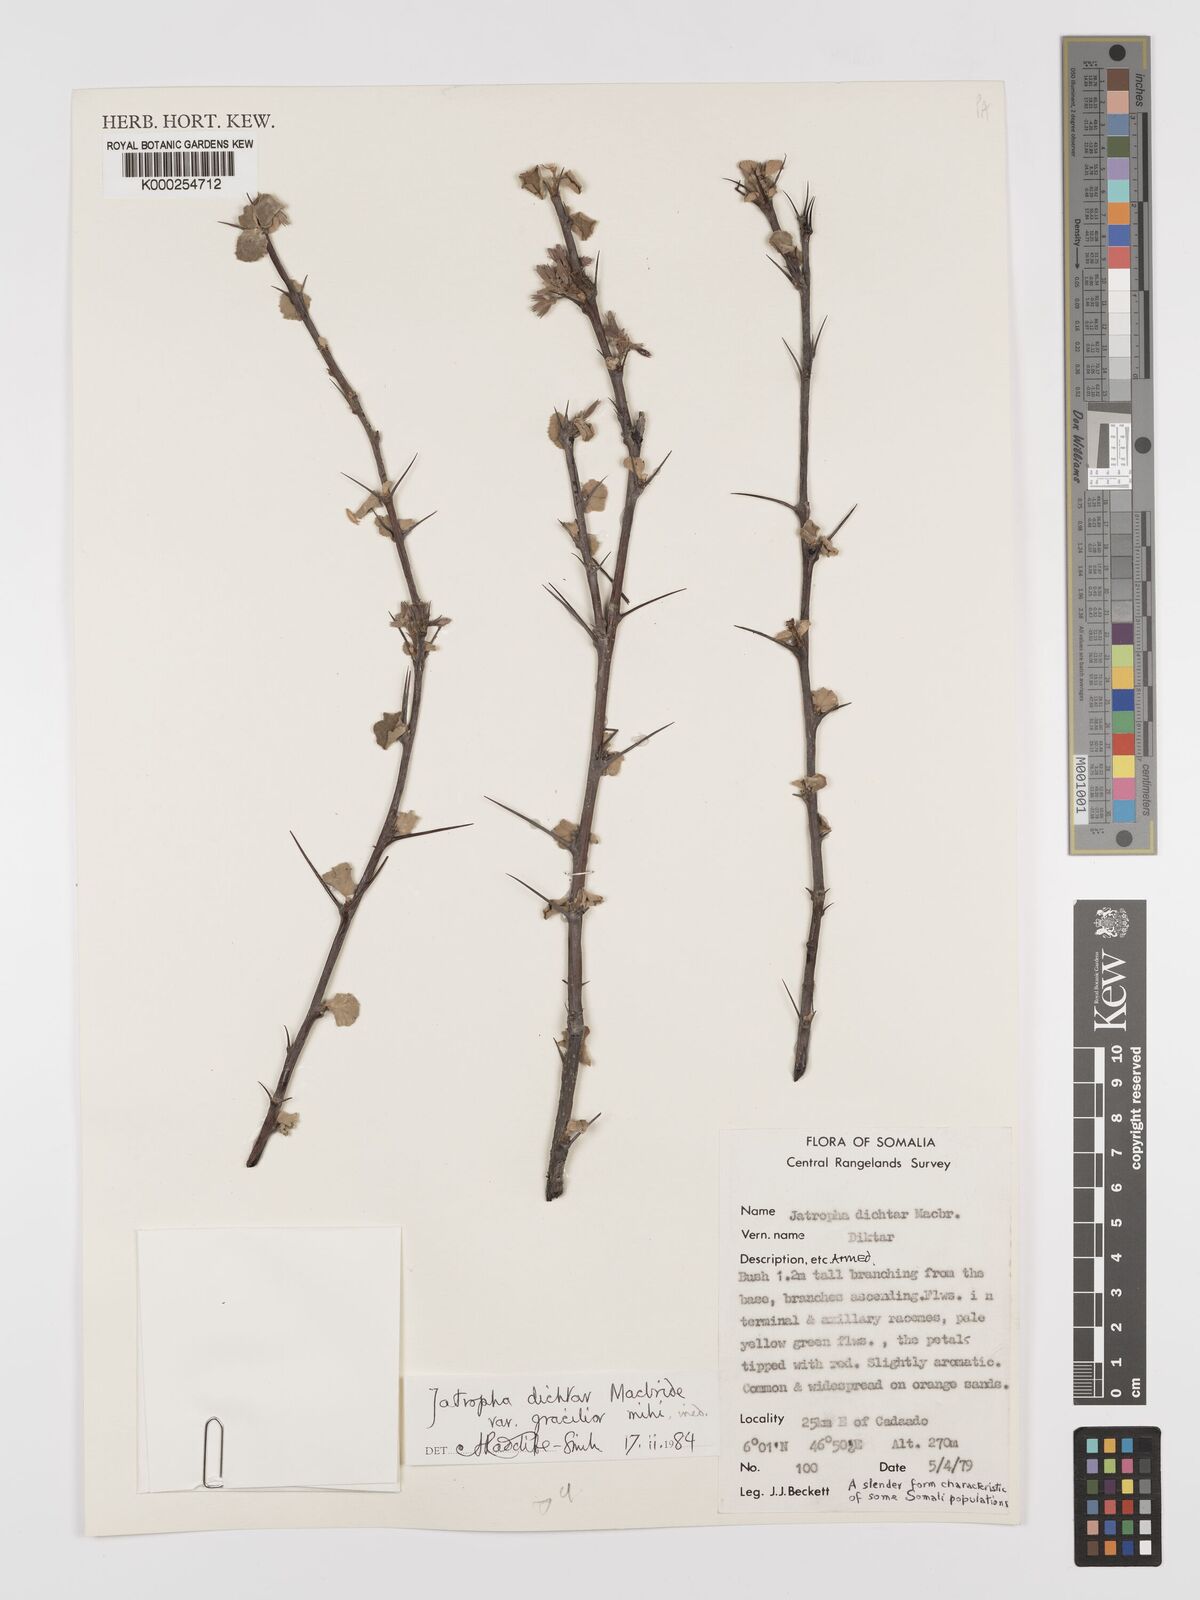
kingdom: Plantae
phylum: Tracheophyta
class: Magnoliopsida
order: Malpighiales
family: Euphorbiaceae
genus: Jatropha
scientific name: Jatropha dichtar
